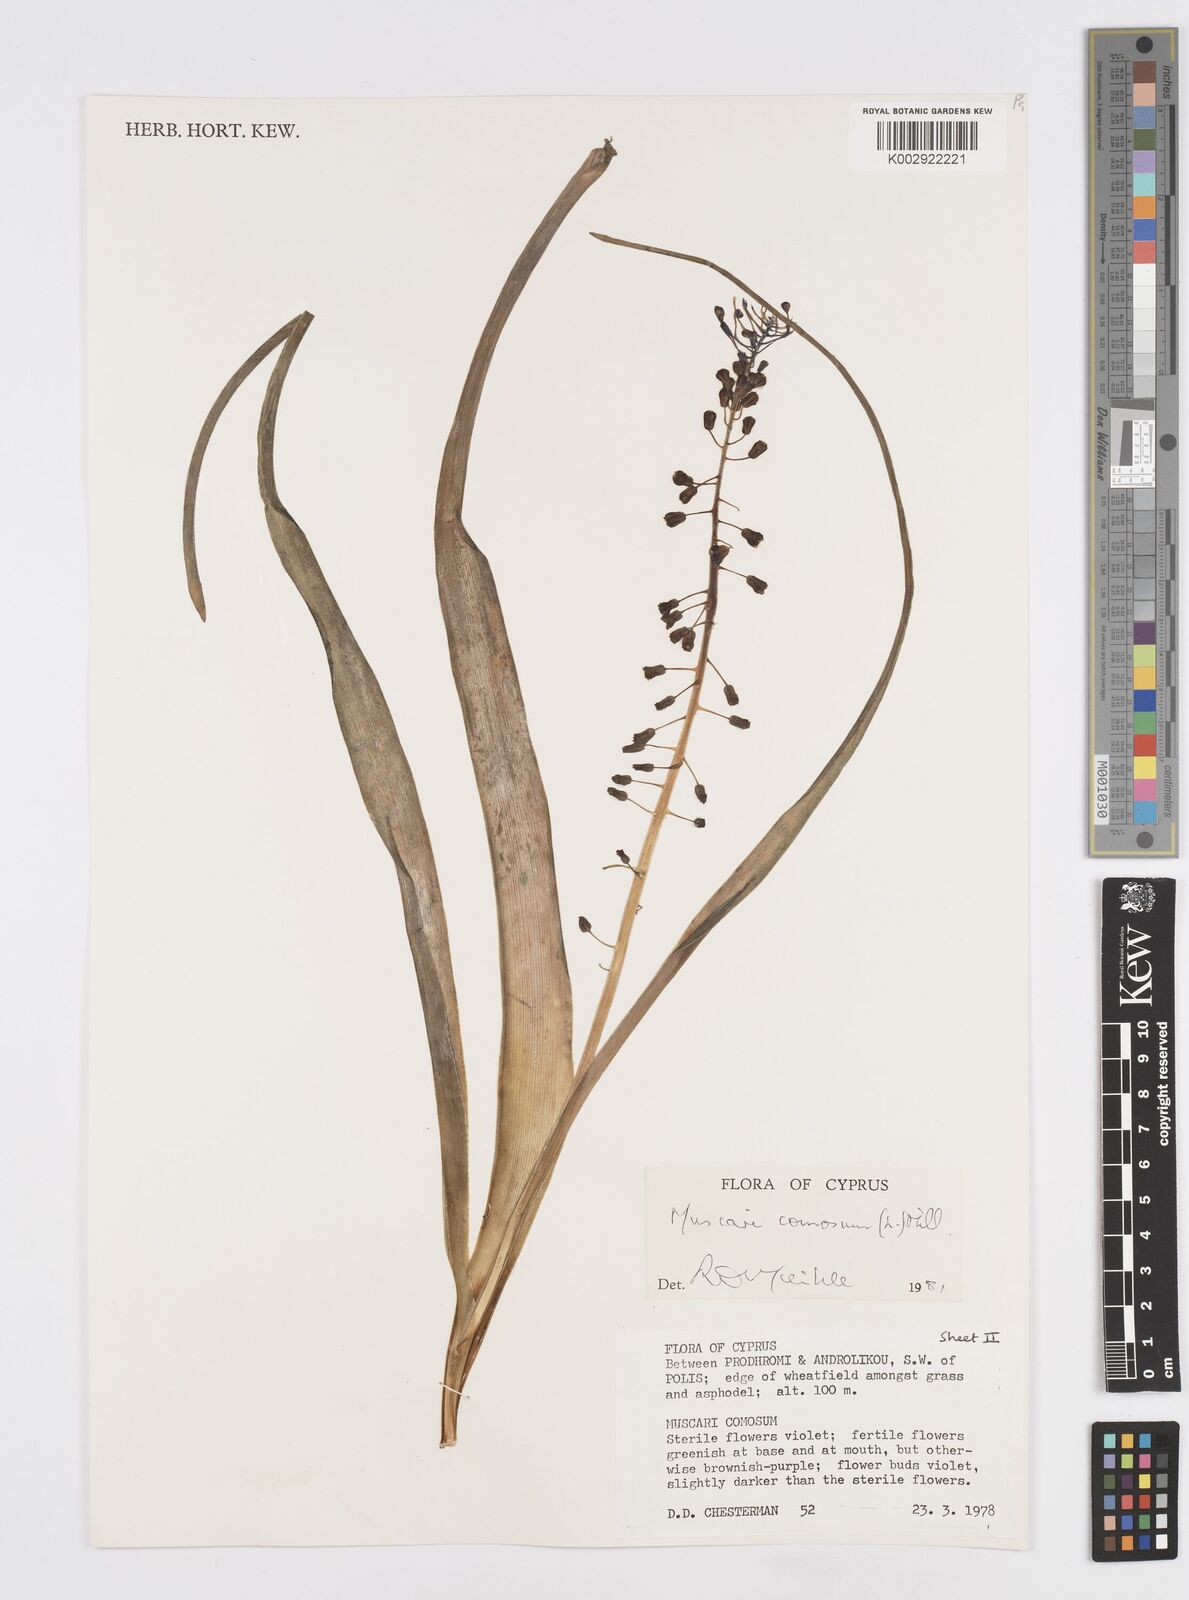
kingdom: Plantae
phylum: Tracheophyta
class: Liliopsida
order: Asparagales
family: Asparagaceae
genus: Muscari
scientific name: Muscari comosum
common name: Tassel hyacinth
